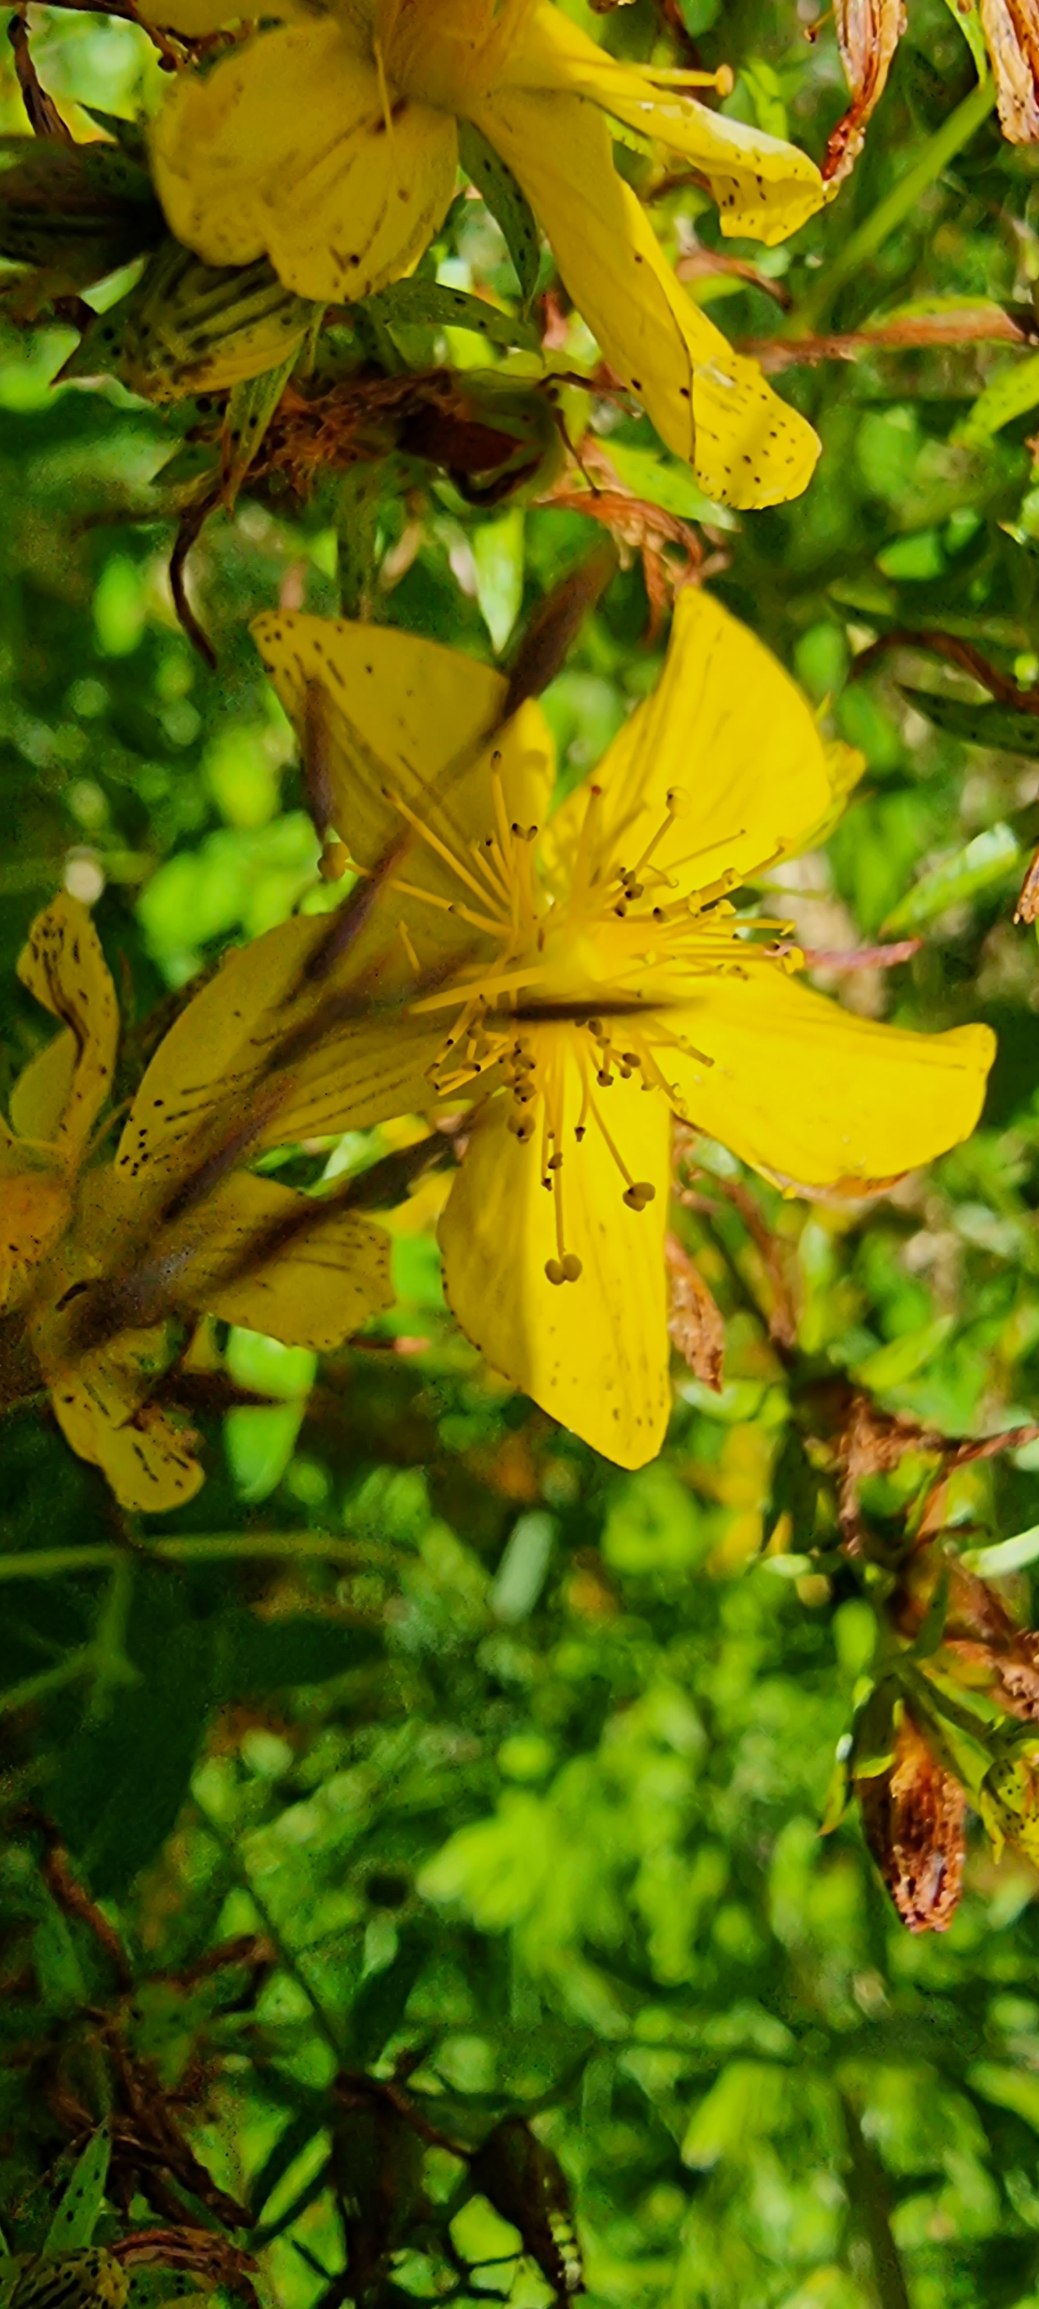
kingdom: Plantae
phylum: Tracheophyta
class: Magnoliopsida
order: Malpighiales
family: Hypericaceae
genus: Hypericum
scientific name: Hypericum perforatum
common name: Prikbladet perikon
